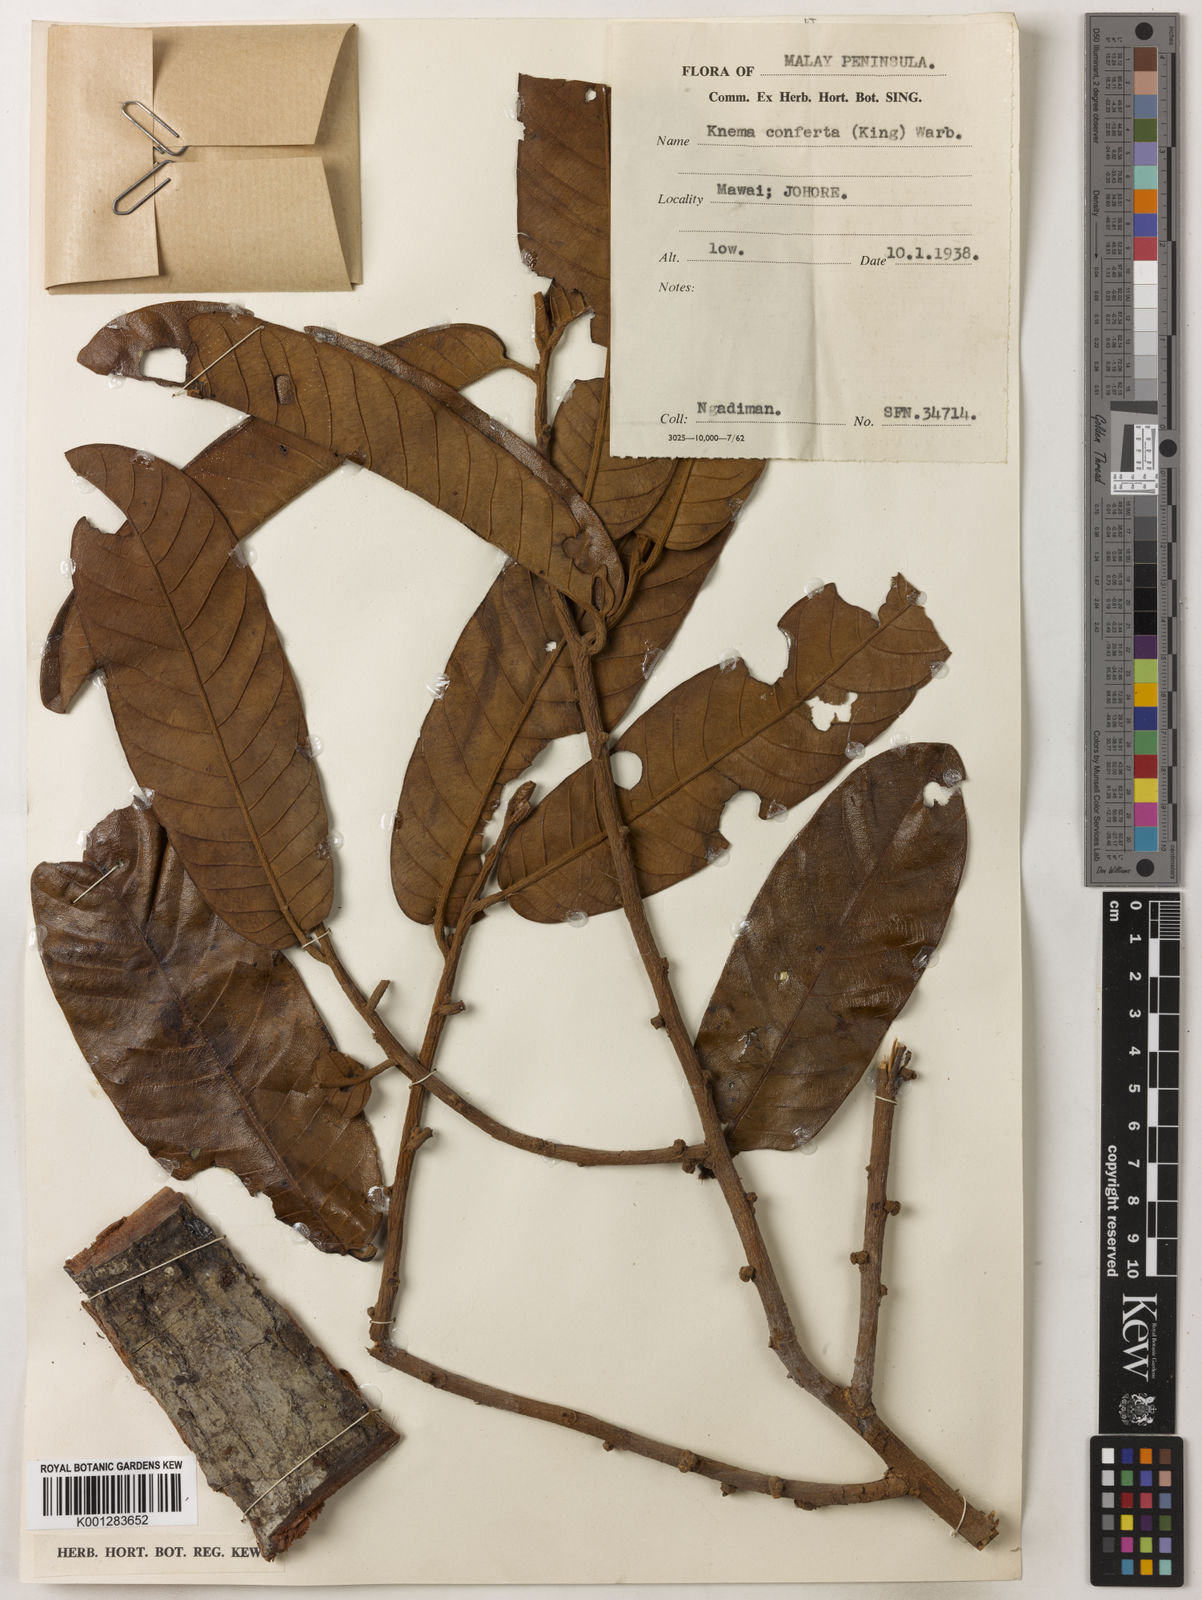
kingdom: Plantae
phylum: Tracheophyta
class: Magnoliopsida
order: Magnoliales
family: Myristicaceae
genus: Knema
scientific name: Knema conferta
